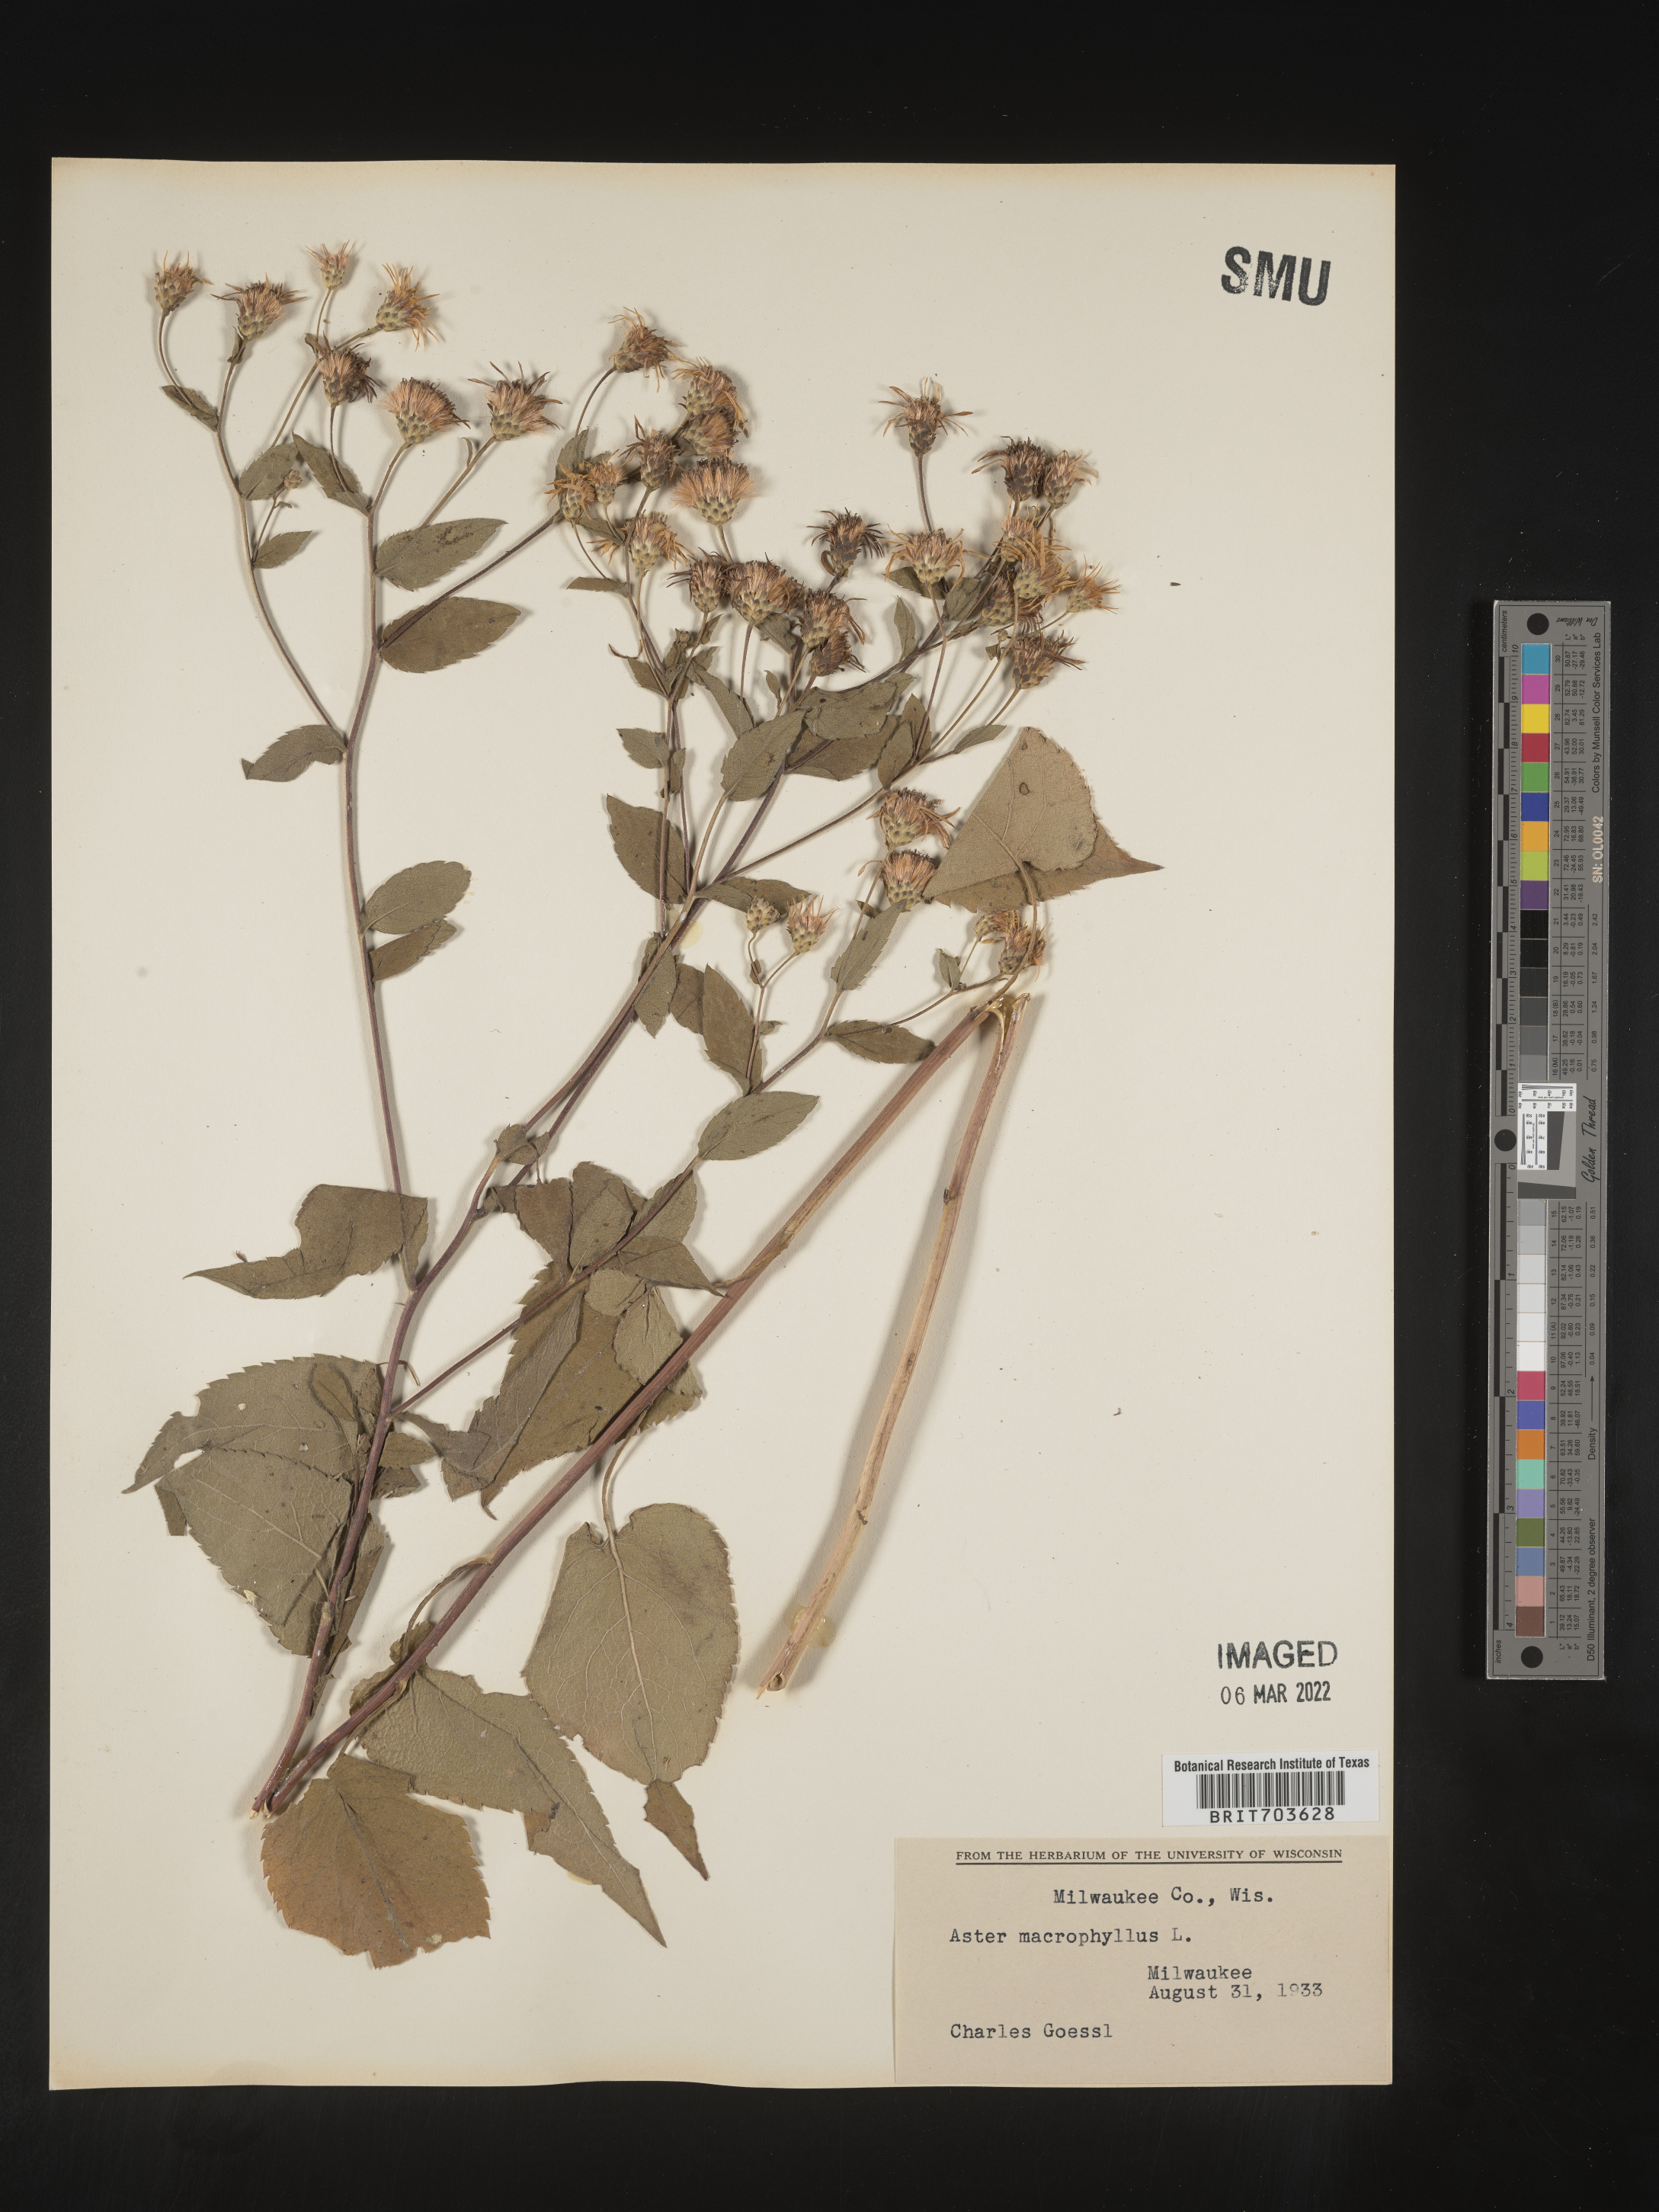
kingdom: Plantae
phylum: Tracheophyta
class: Magnoliopsida
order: Asterales
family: Asteraceae
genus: Eurybia
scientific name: Eurybia macrophylla
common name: Big-leaved aster
